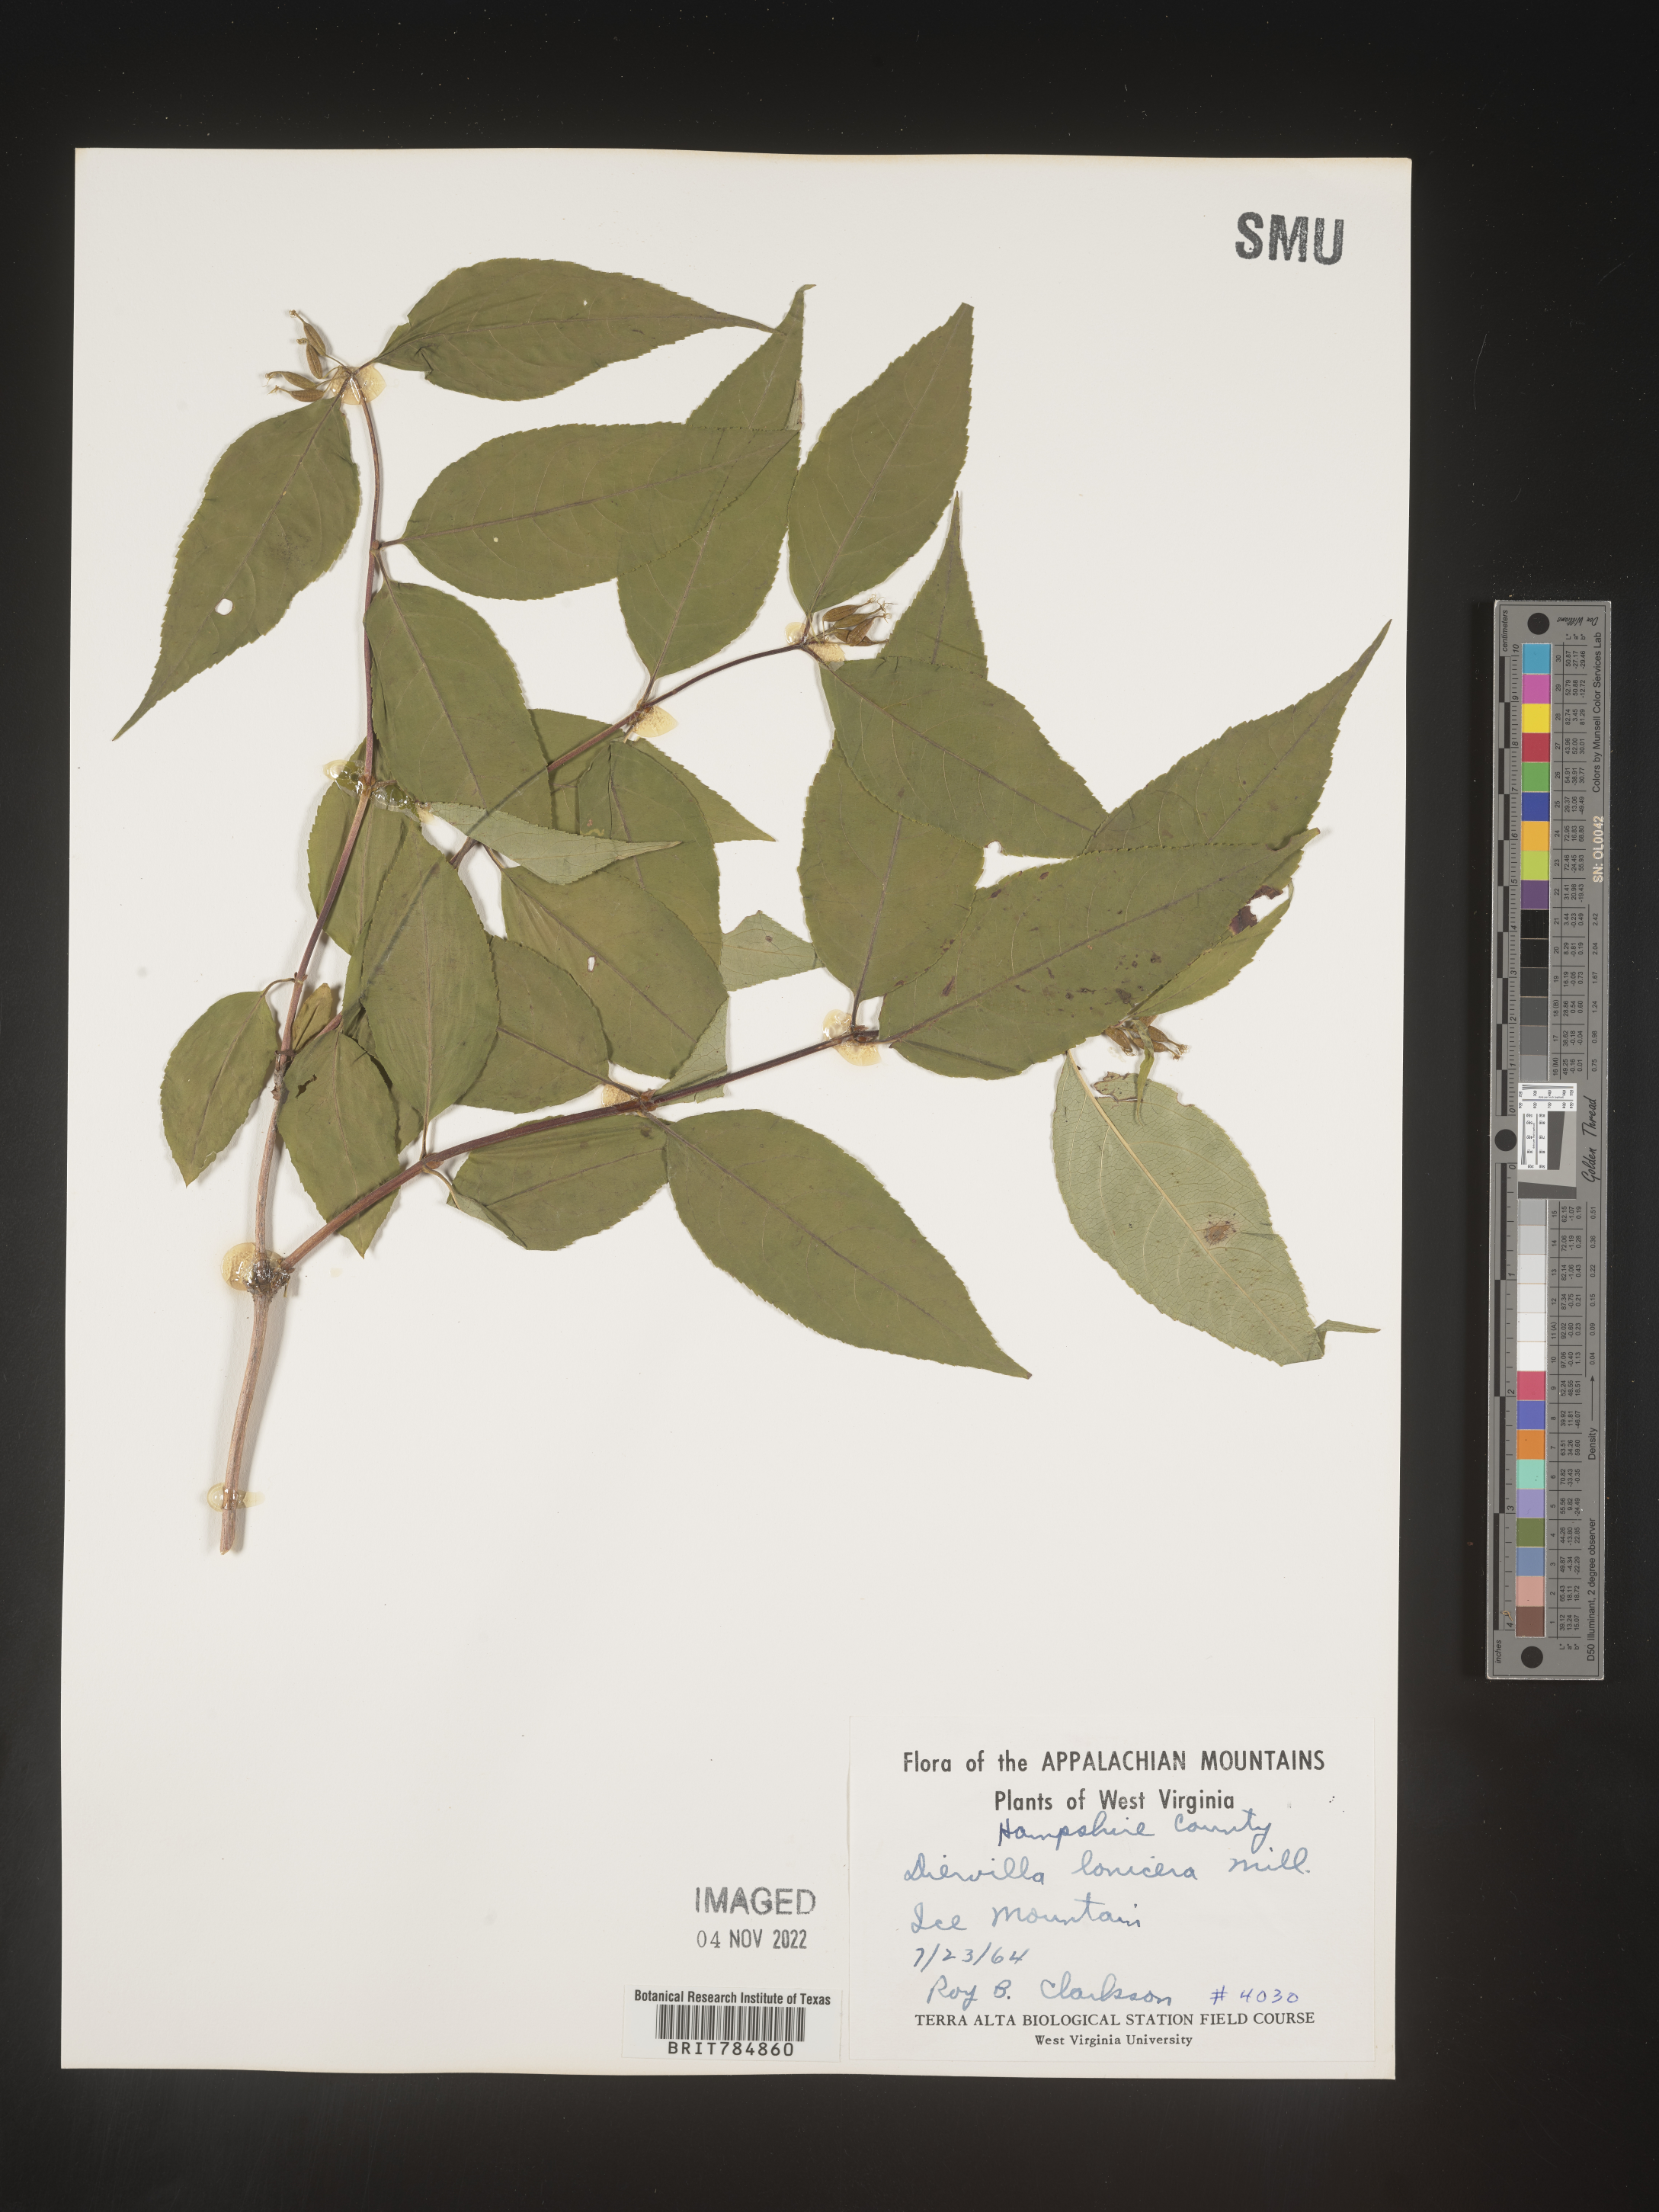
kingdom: Plantae
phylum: Tracheophyta
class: Magnoliopsida
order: Dipsacales
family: Caprifoliaceae
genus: Diervilla
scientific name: Diervilla lonicera
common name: Bush-honeysuckle
